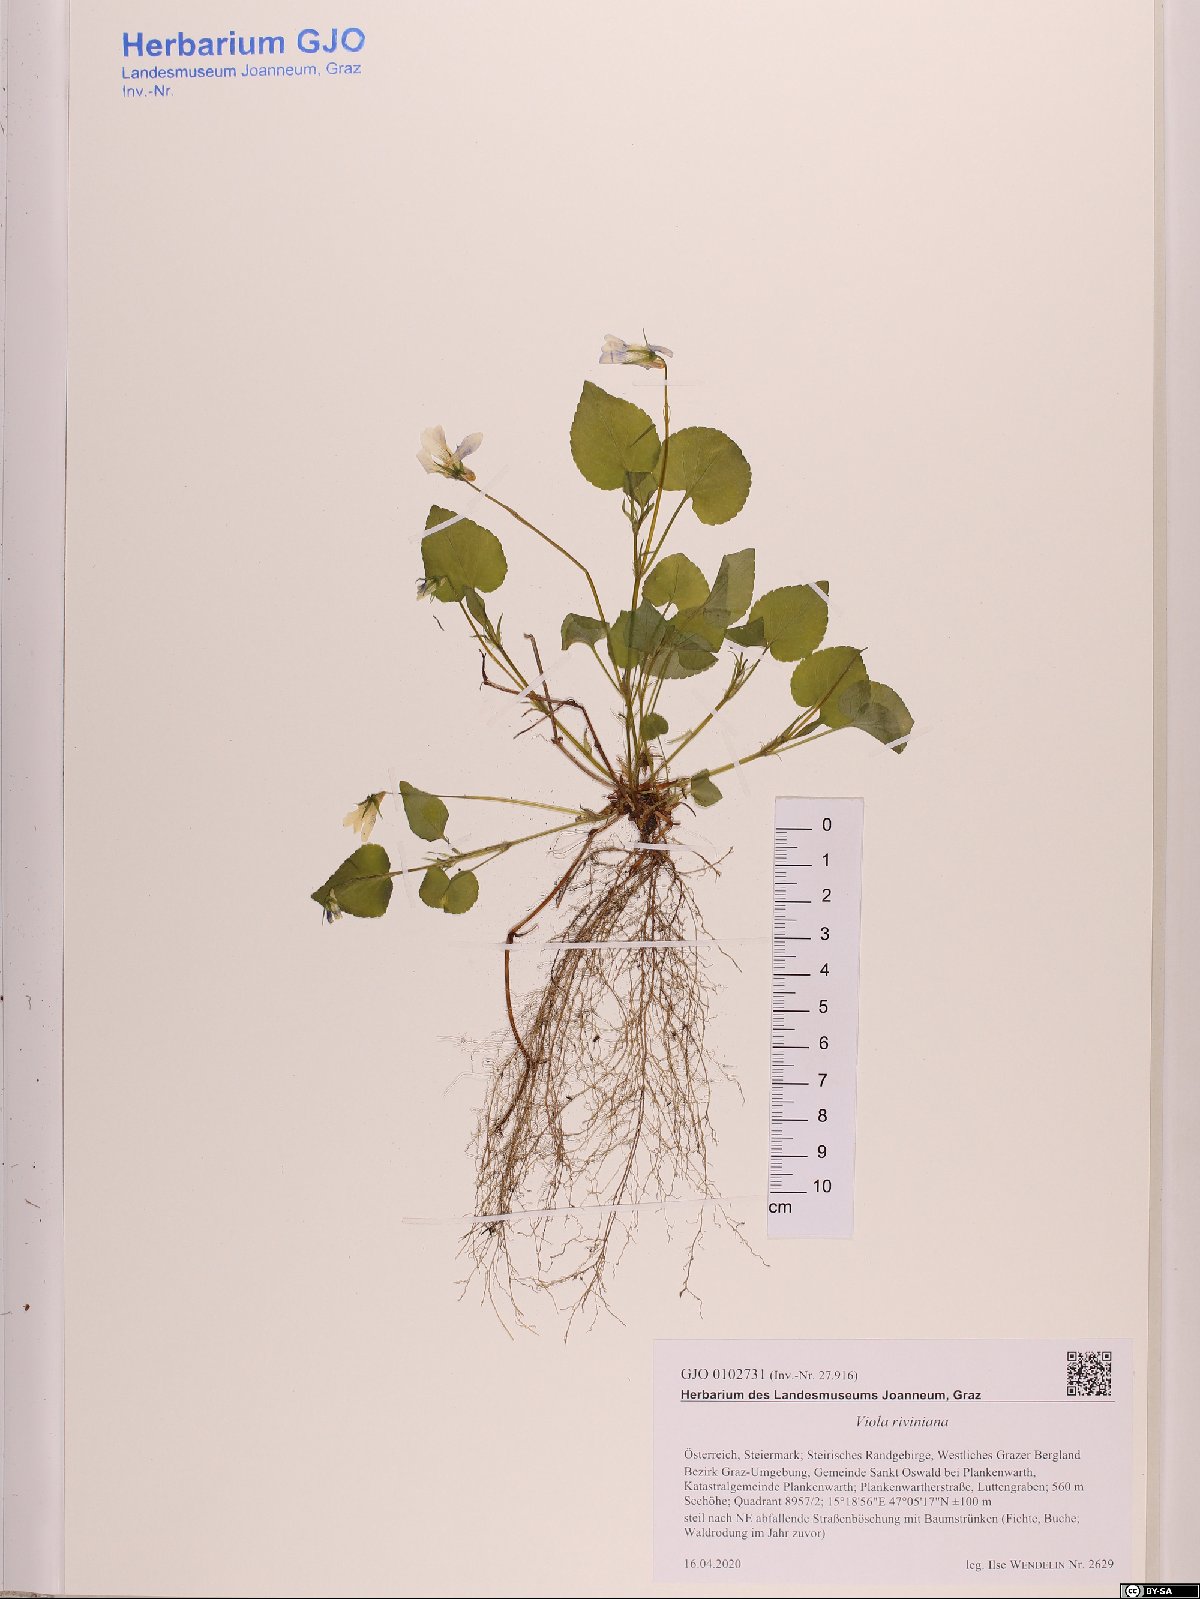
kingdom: Plantae
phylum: Tracheophyta
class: Magnoliopsida
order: Malpighiales
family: Violaceae
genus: Viola
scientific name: Viola riviniana
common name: Common dog-violet
